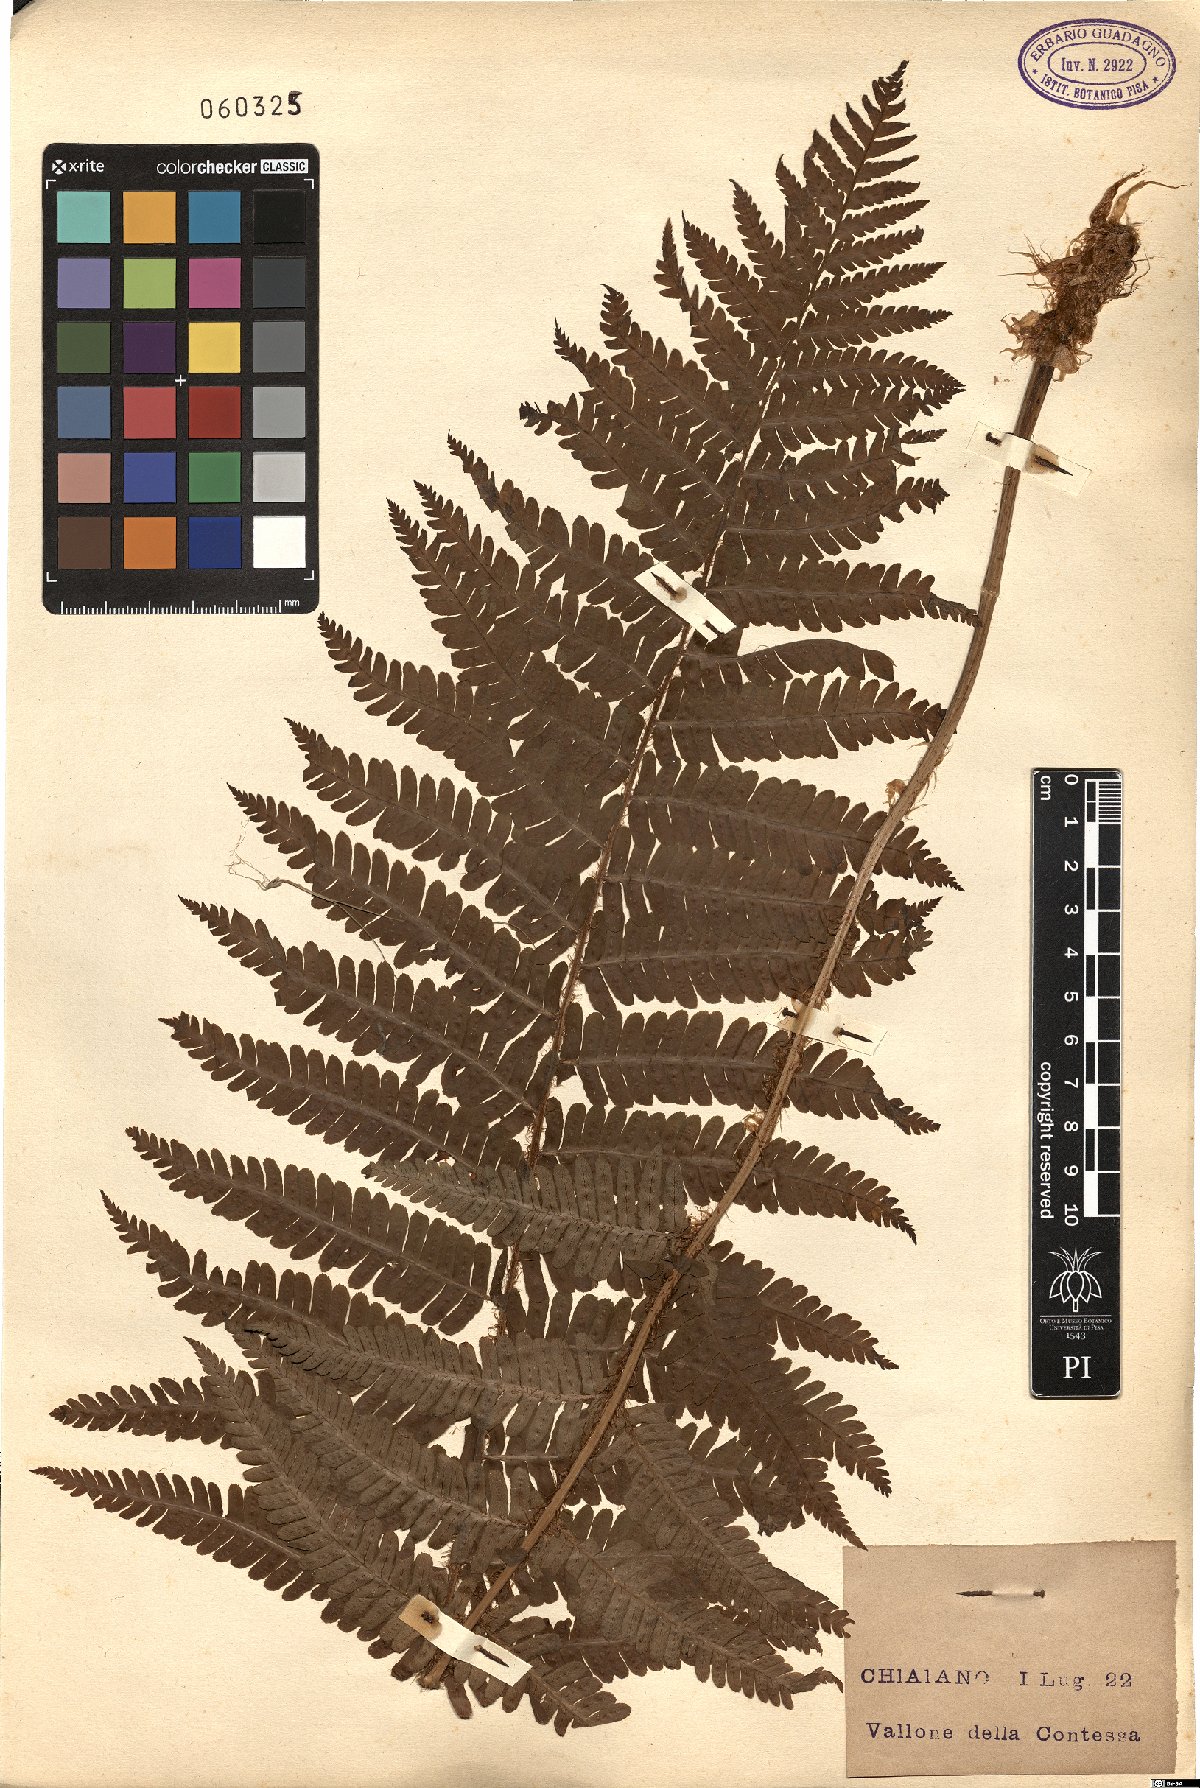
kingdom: Plantae
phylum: Tracheophyta
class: Polypodiopsida
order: Polypodiales
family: Dryopteridaceae
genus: Dryopteris
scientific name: Dryopteris
